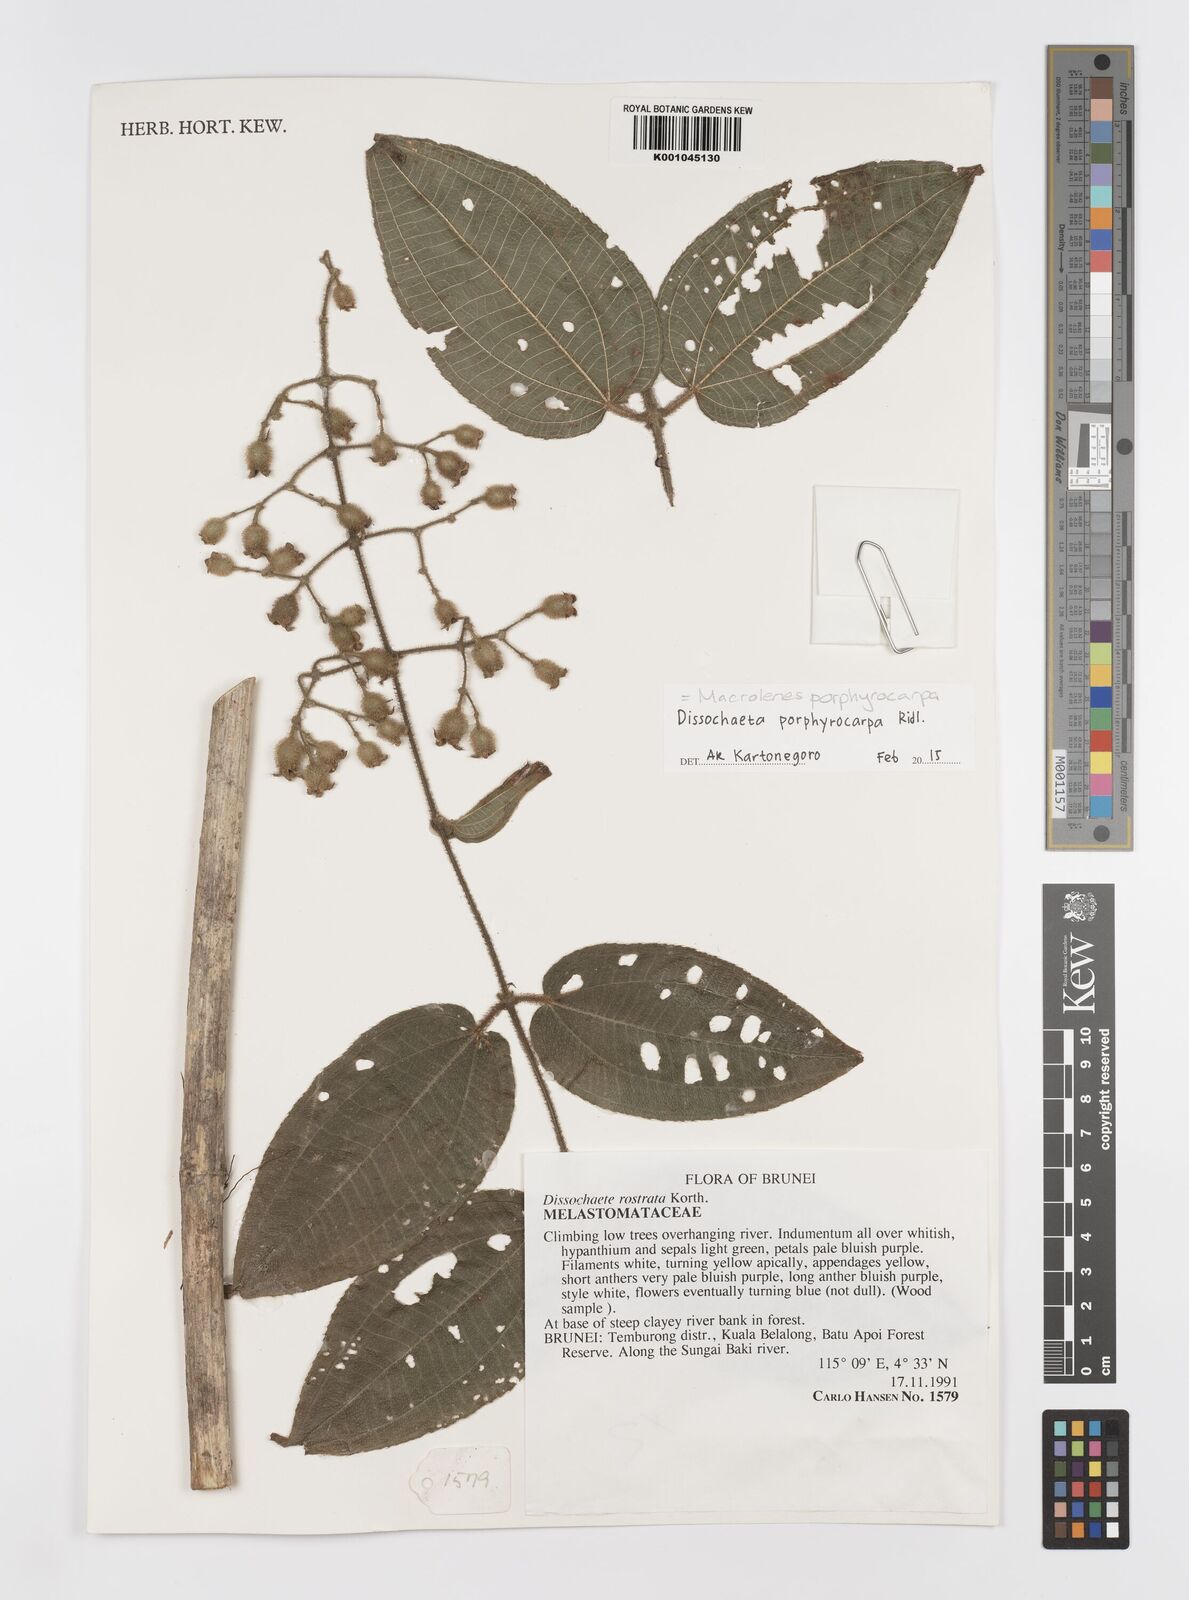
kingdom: Plantae
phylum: Tracheophyta
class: Magnoliopsida
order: Myrtales
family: Melastomataceae
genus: Macrolenes
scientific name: Macrolenes porphyrocarpa
